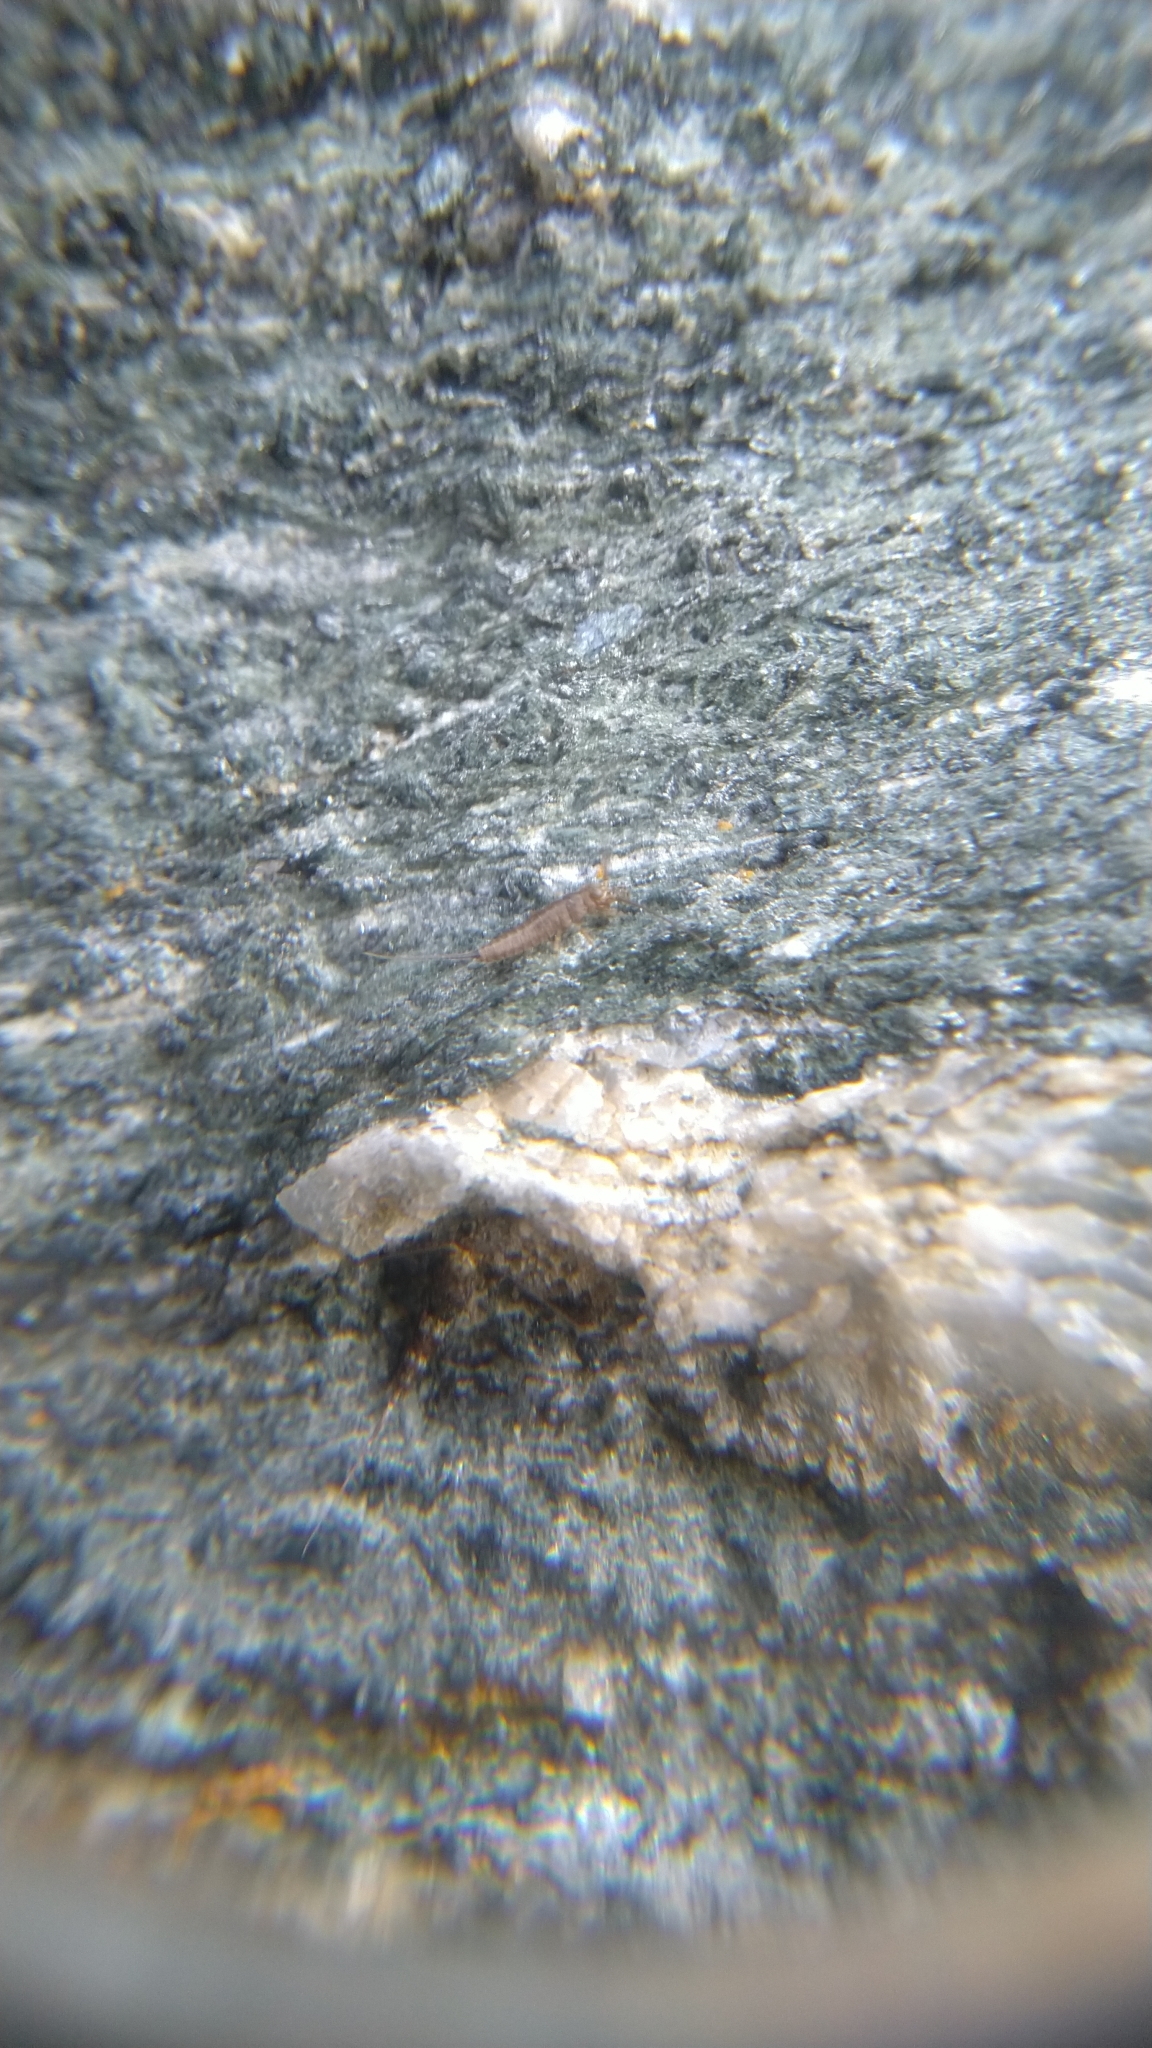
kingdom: Animalia
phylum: Arthropoda
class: Insecta
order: Archaeognatha
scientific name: Archaeognatha
